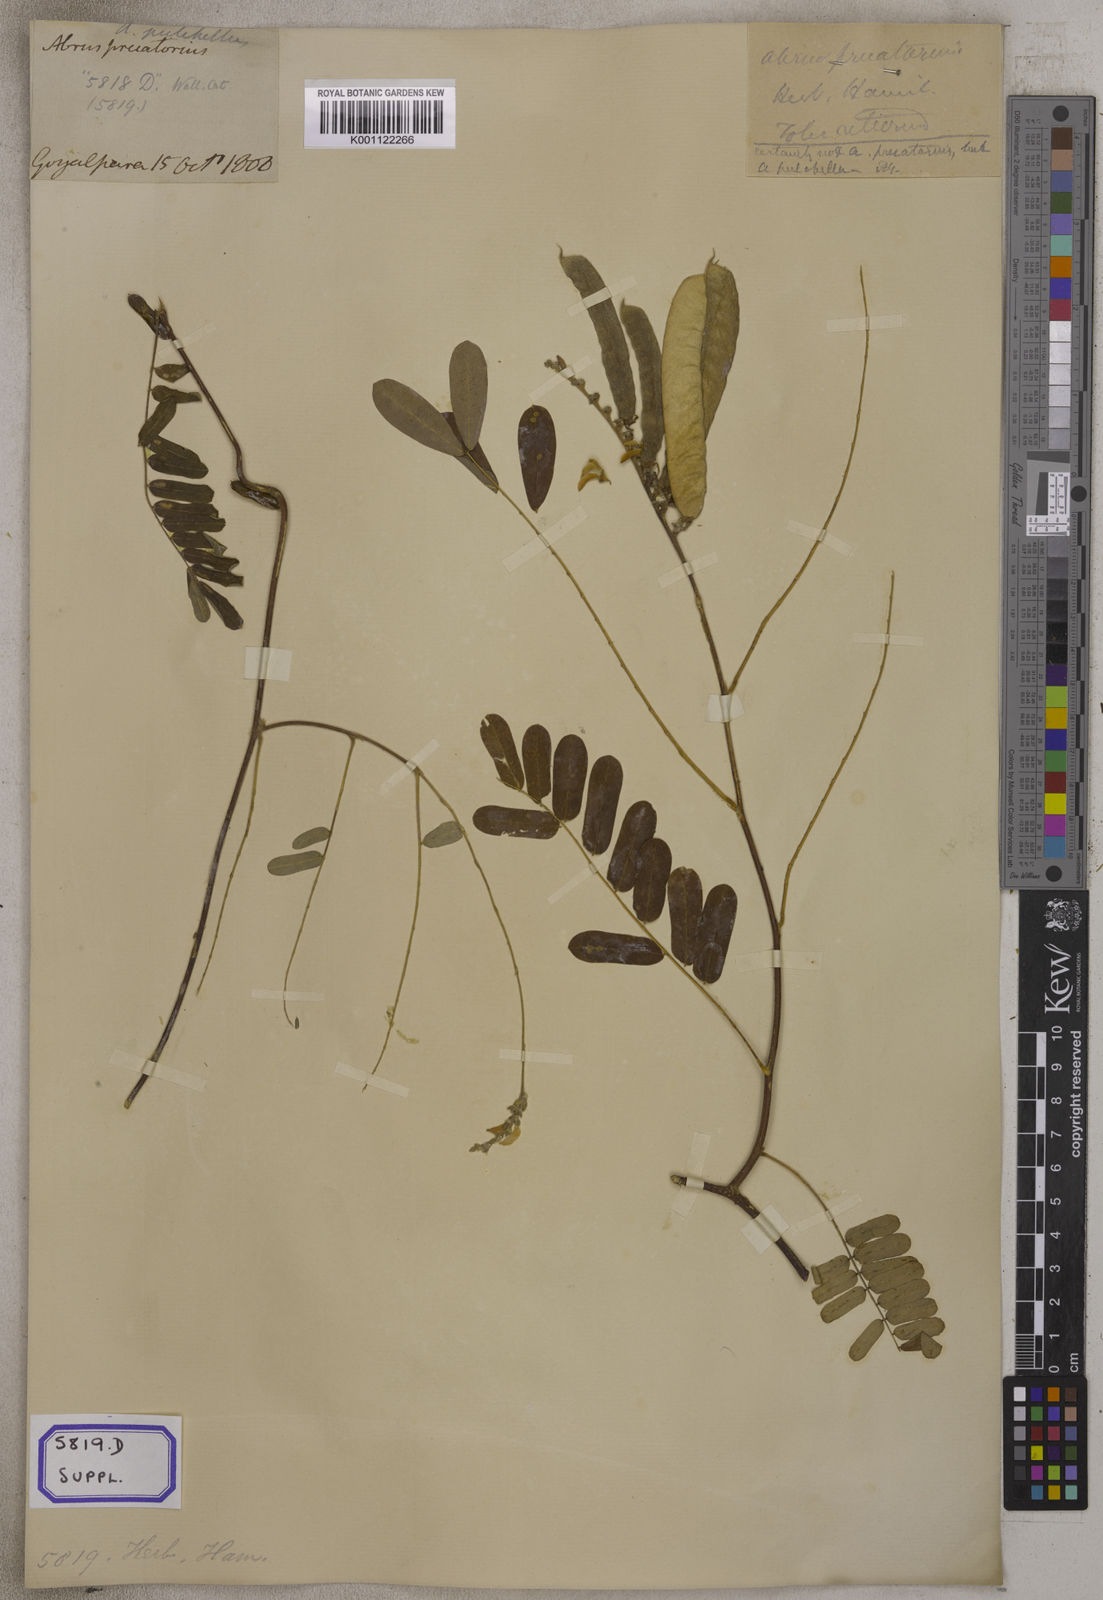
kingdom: Plantae
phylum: Tracheophyta
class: Magnoliopsida
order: Fabales
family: Fabaceae
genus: Abrus
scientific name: Abrus precatorius
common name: Rosarypea
